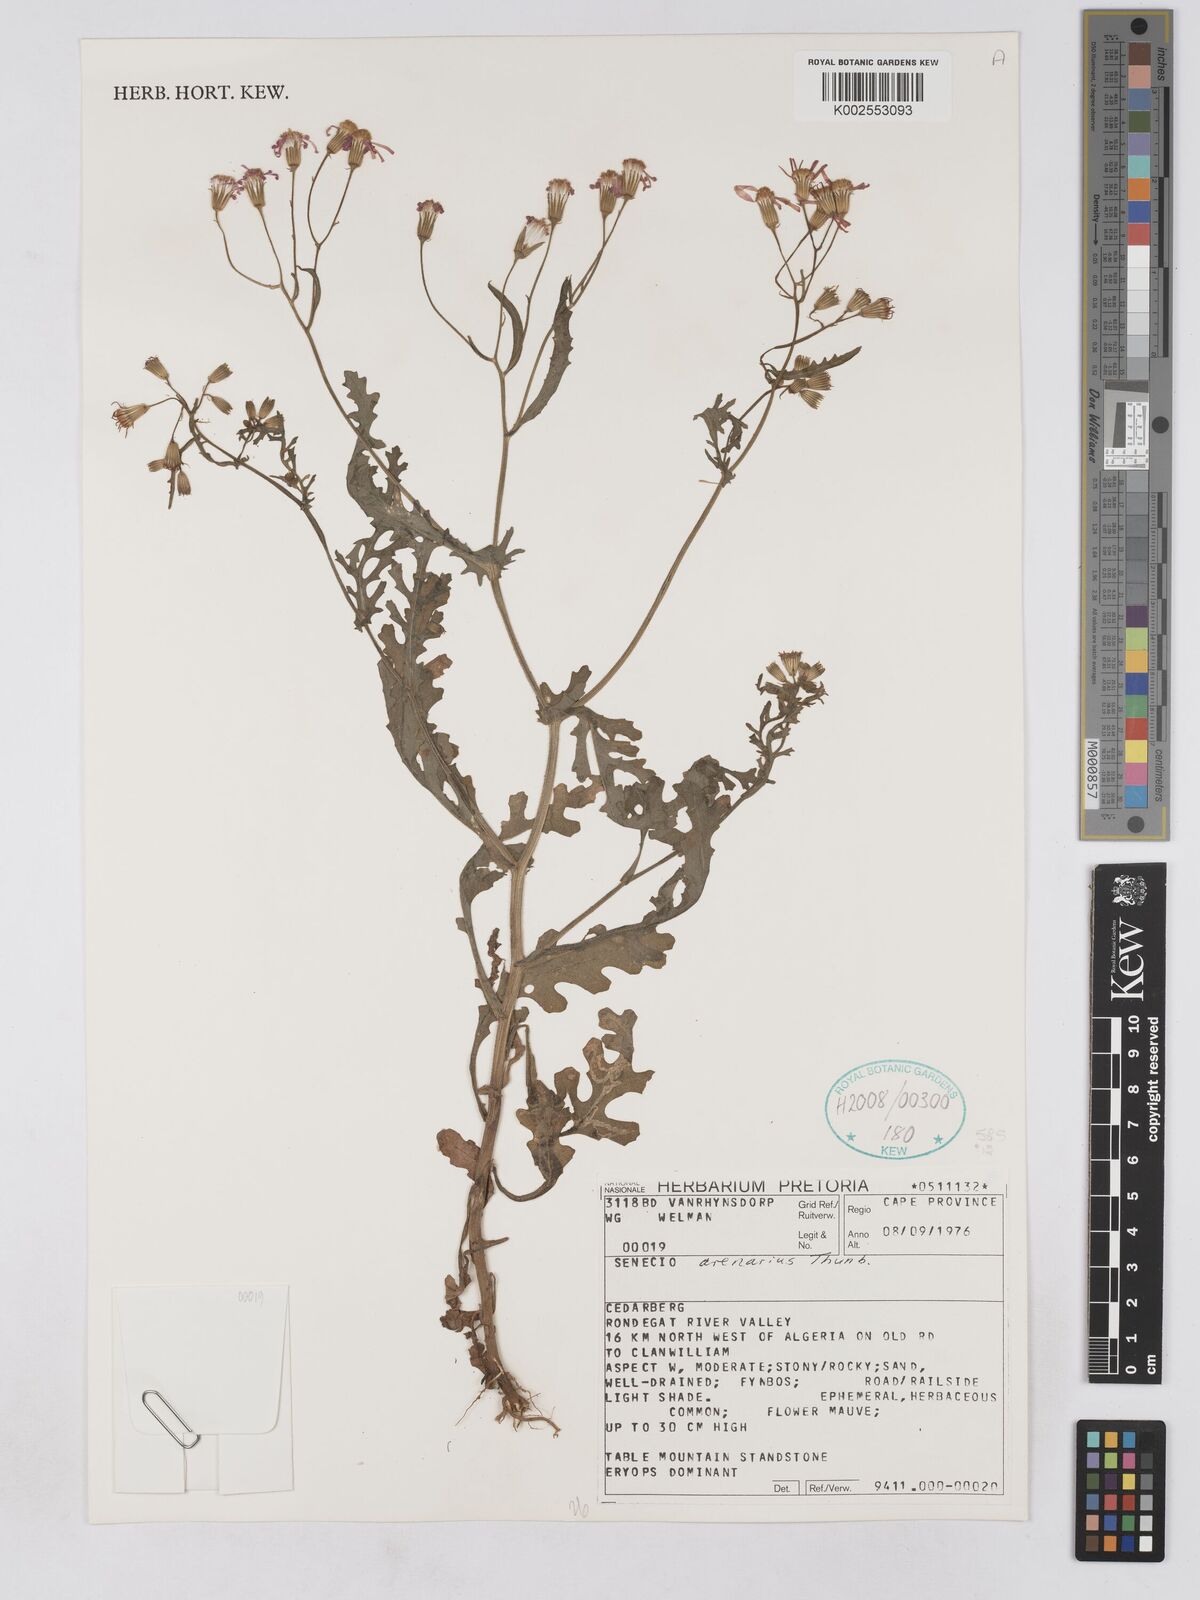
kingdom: Plantae
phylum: Tracheophyta
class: Magnoliopsida
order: Asterales
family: Asteraceae
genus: Senecio
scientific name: Senecio arenarius
